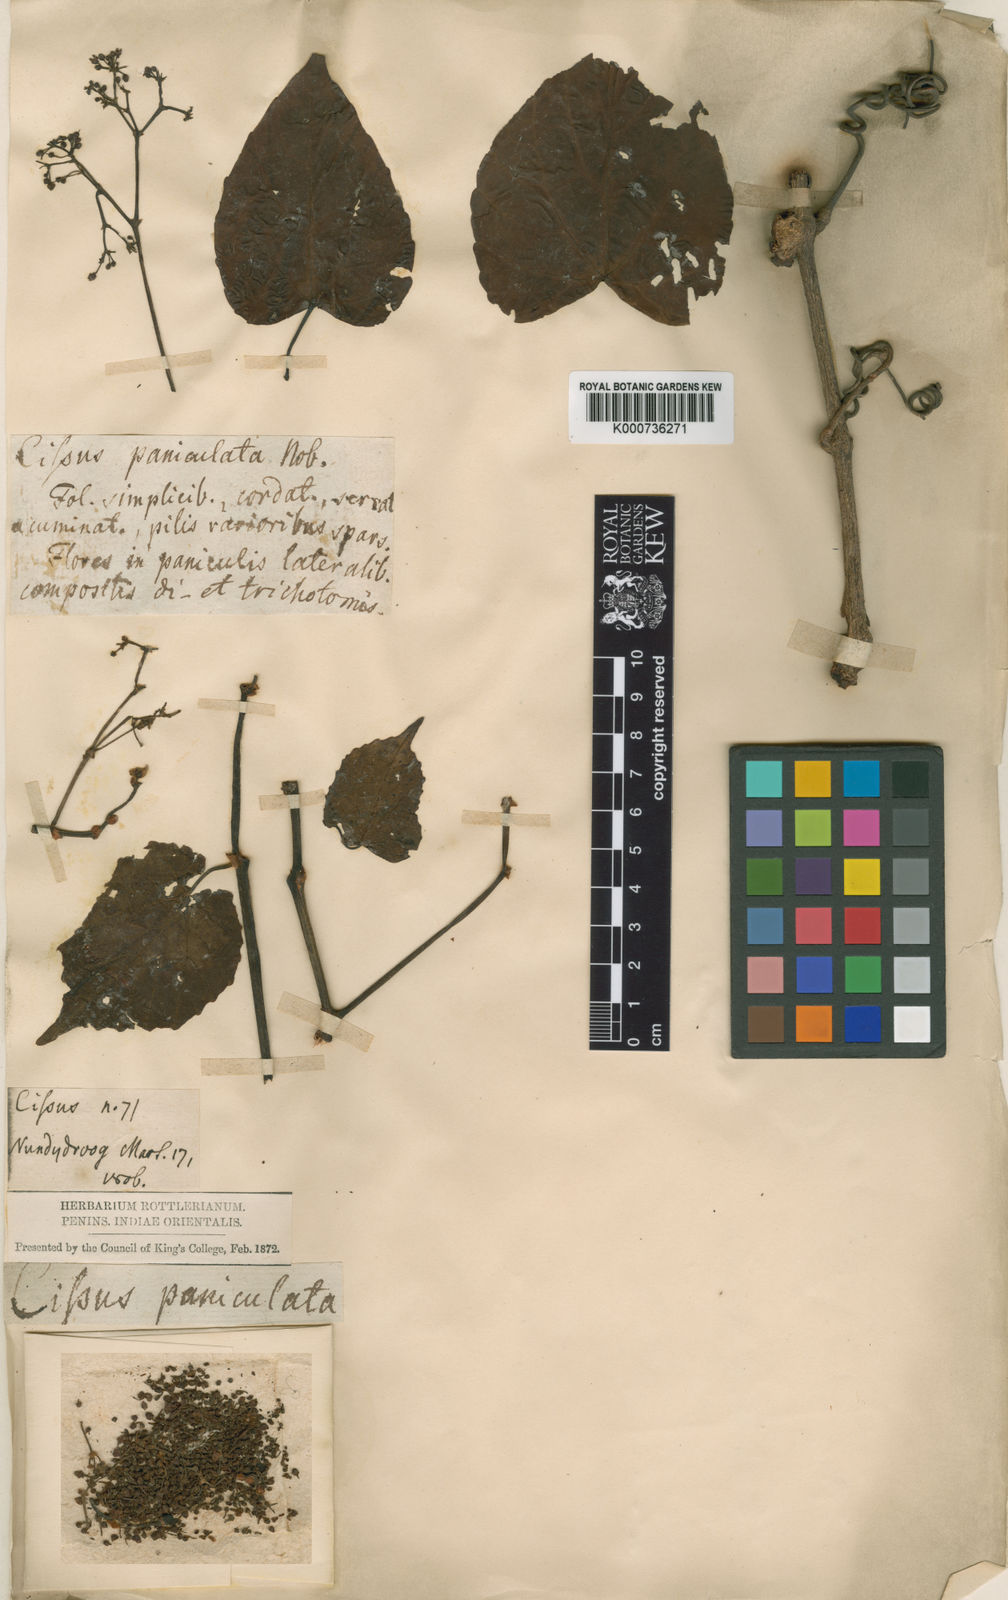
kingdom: Plantae
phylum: Tracheophyta
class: Magnoliopsida
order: Vitales
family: Vitaceae
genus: Cissus
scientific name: Cissus repanda
